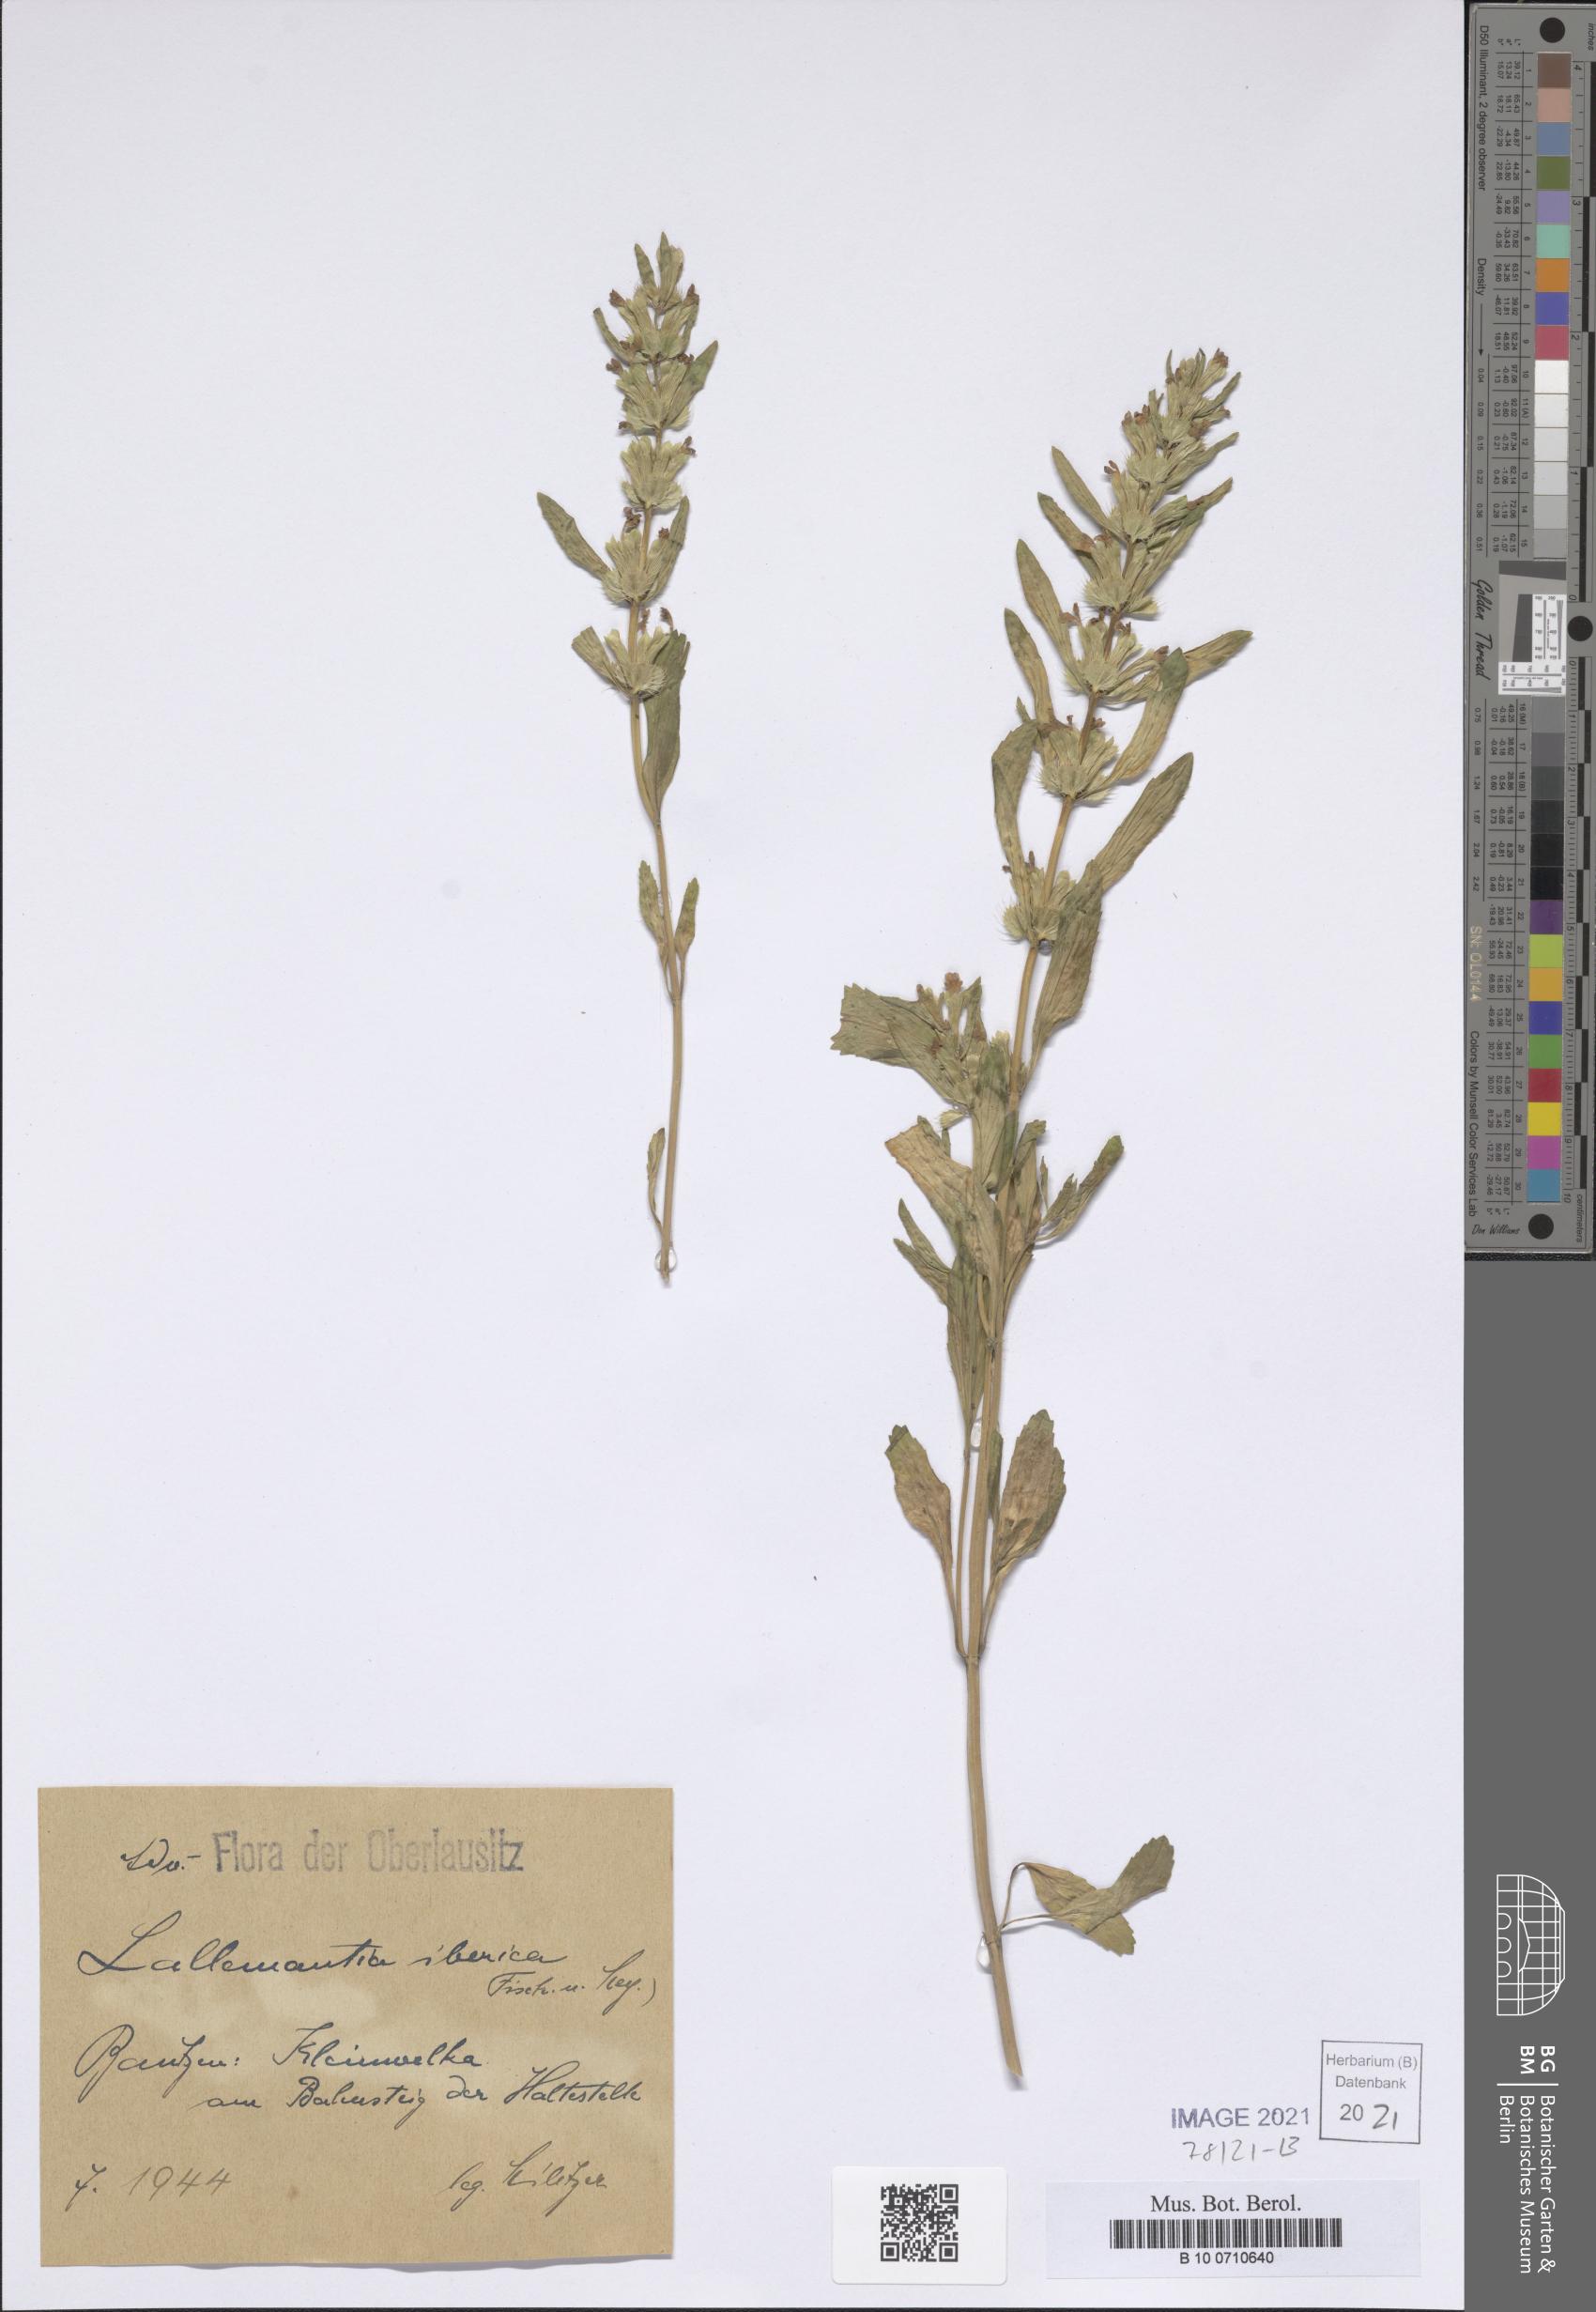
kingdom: Plantae
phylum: Tracheophyta
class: Magnoliopsida
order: Lamiales
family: Lamiaceae
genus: Lallemantia
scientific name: Lallemantia iberica
